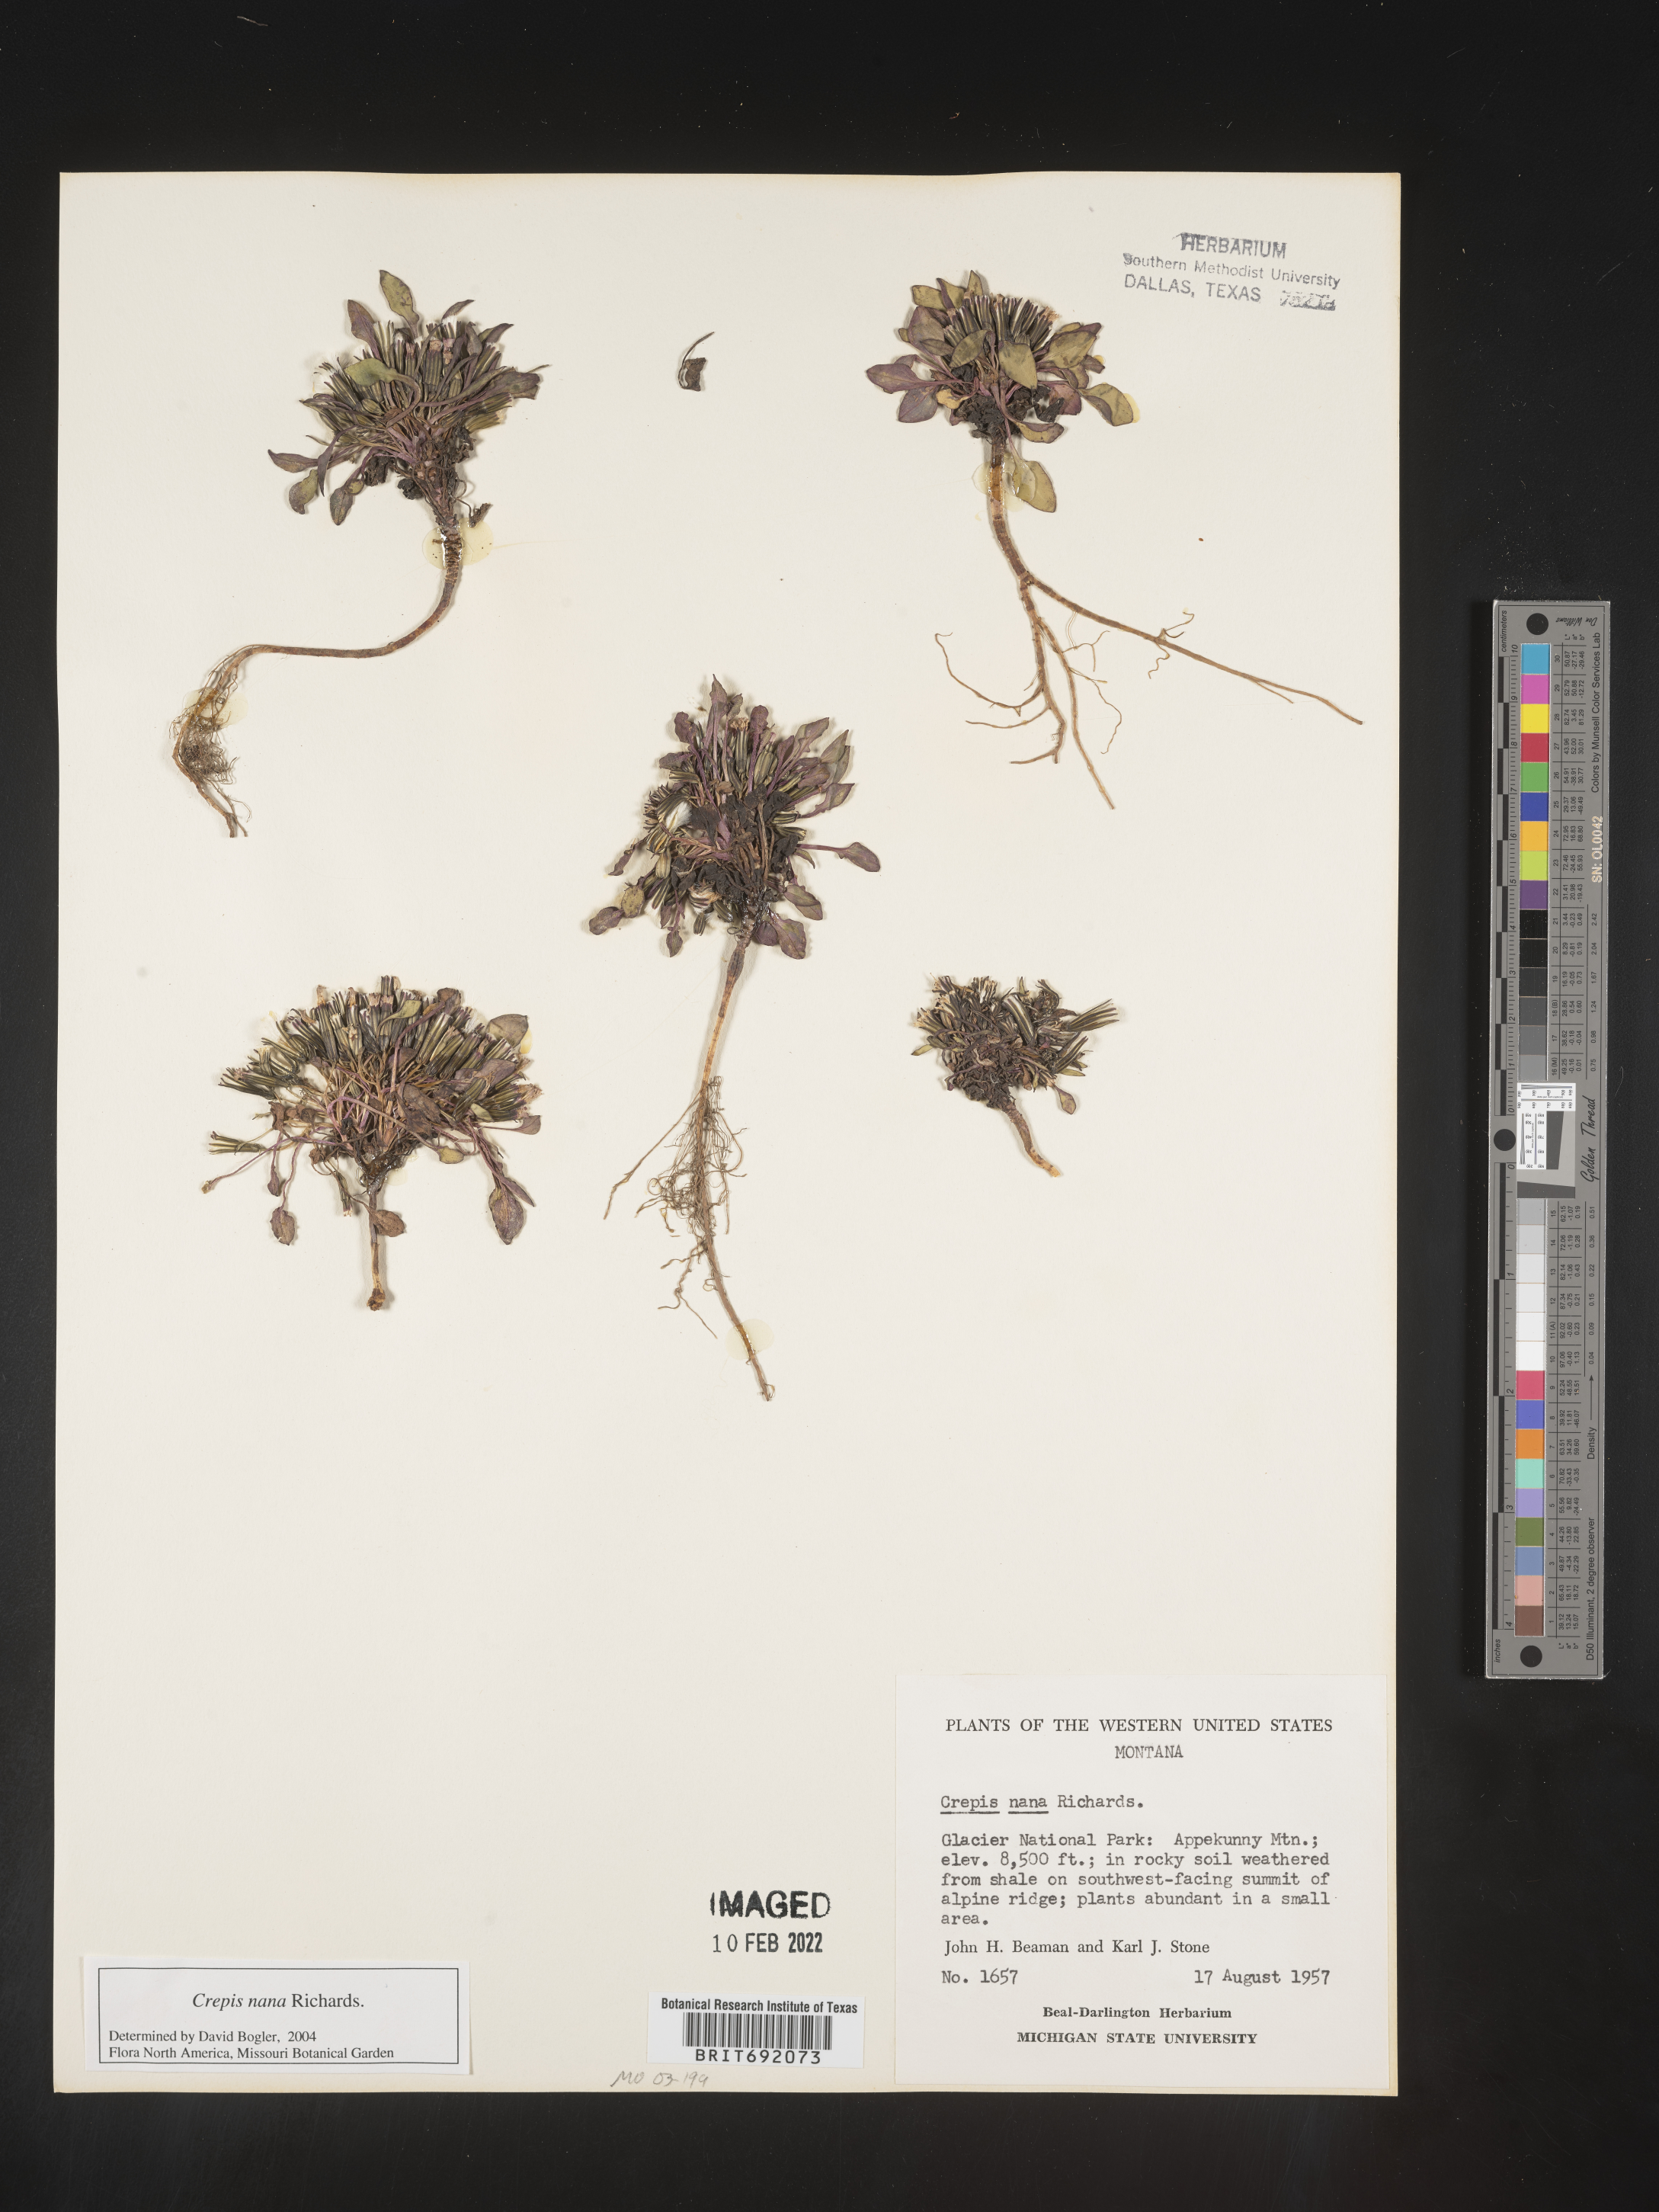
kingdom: Plantae
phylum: Tracheophyta
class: Magnoliopsida
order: Asterales
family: Asteraceae
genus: Crepis
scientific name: Crepis
